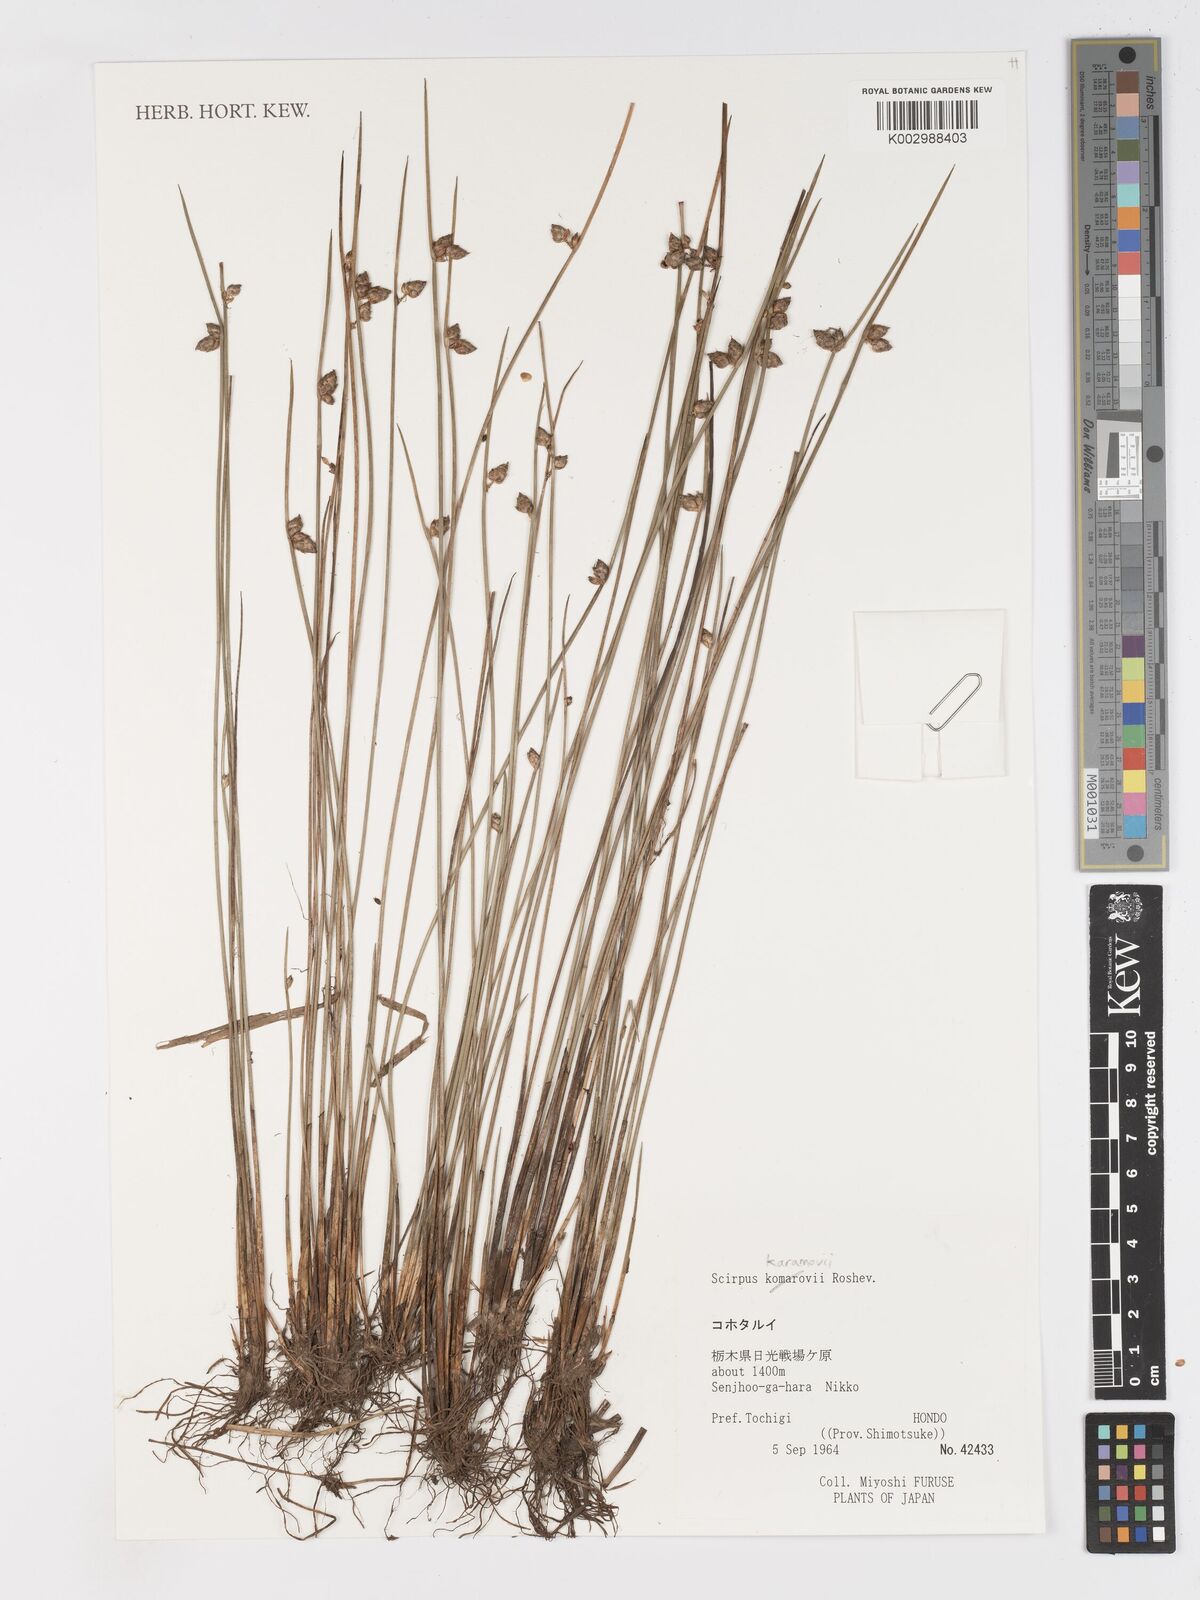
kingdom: Plantae
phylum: Tracheophyta
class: Liliopsida
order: Poales
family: Cyperaceae
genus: Schoenoplectiella
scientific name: Schoenoplectiella komarovii
